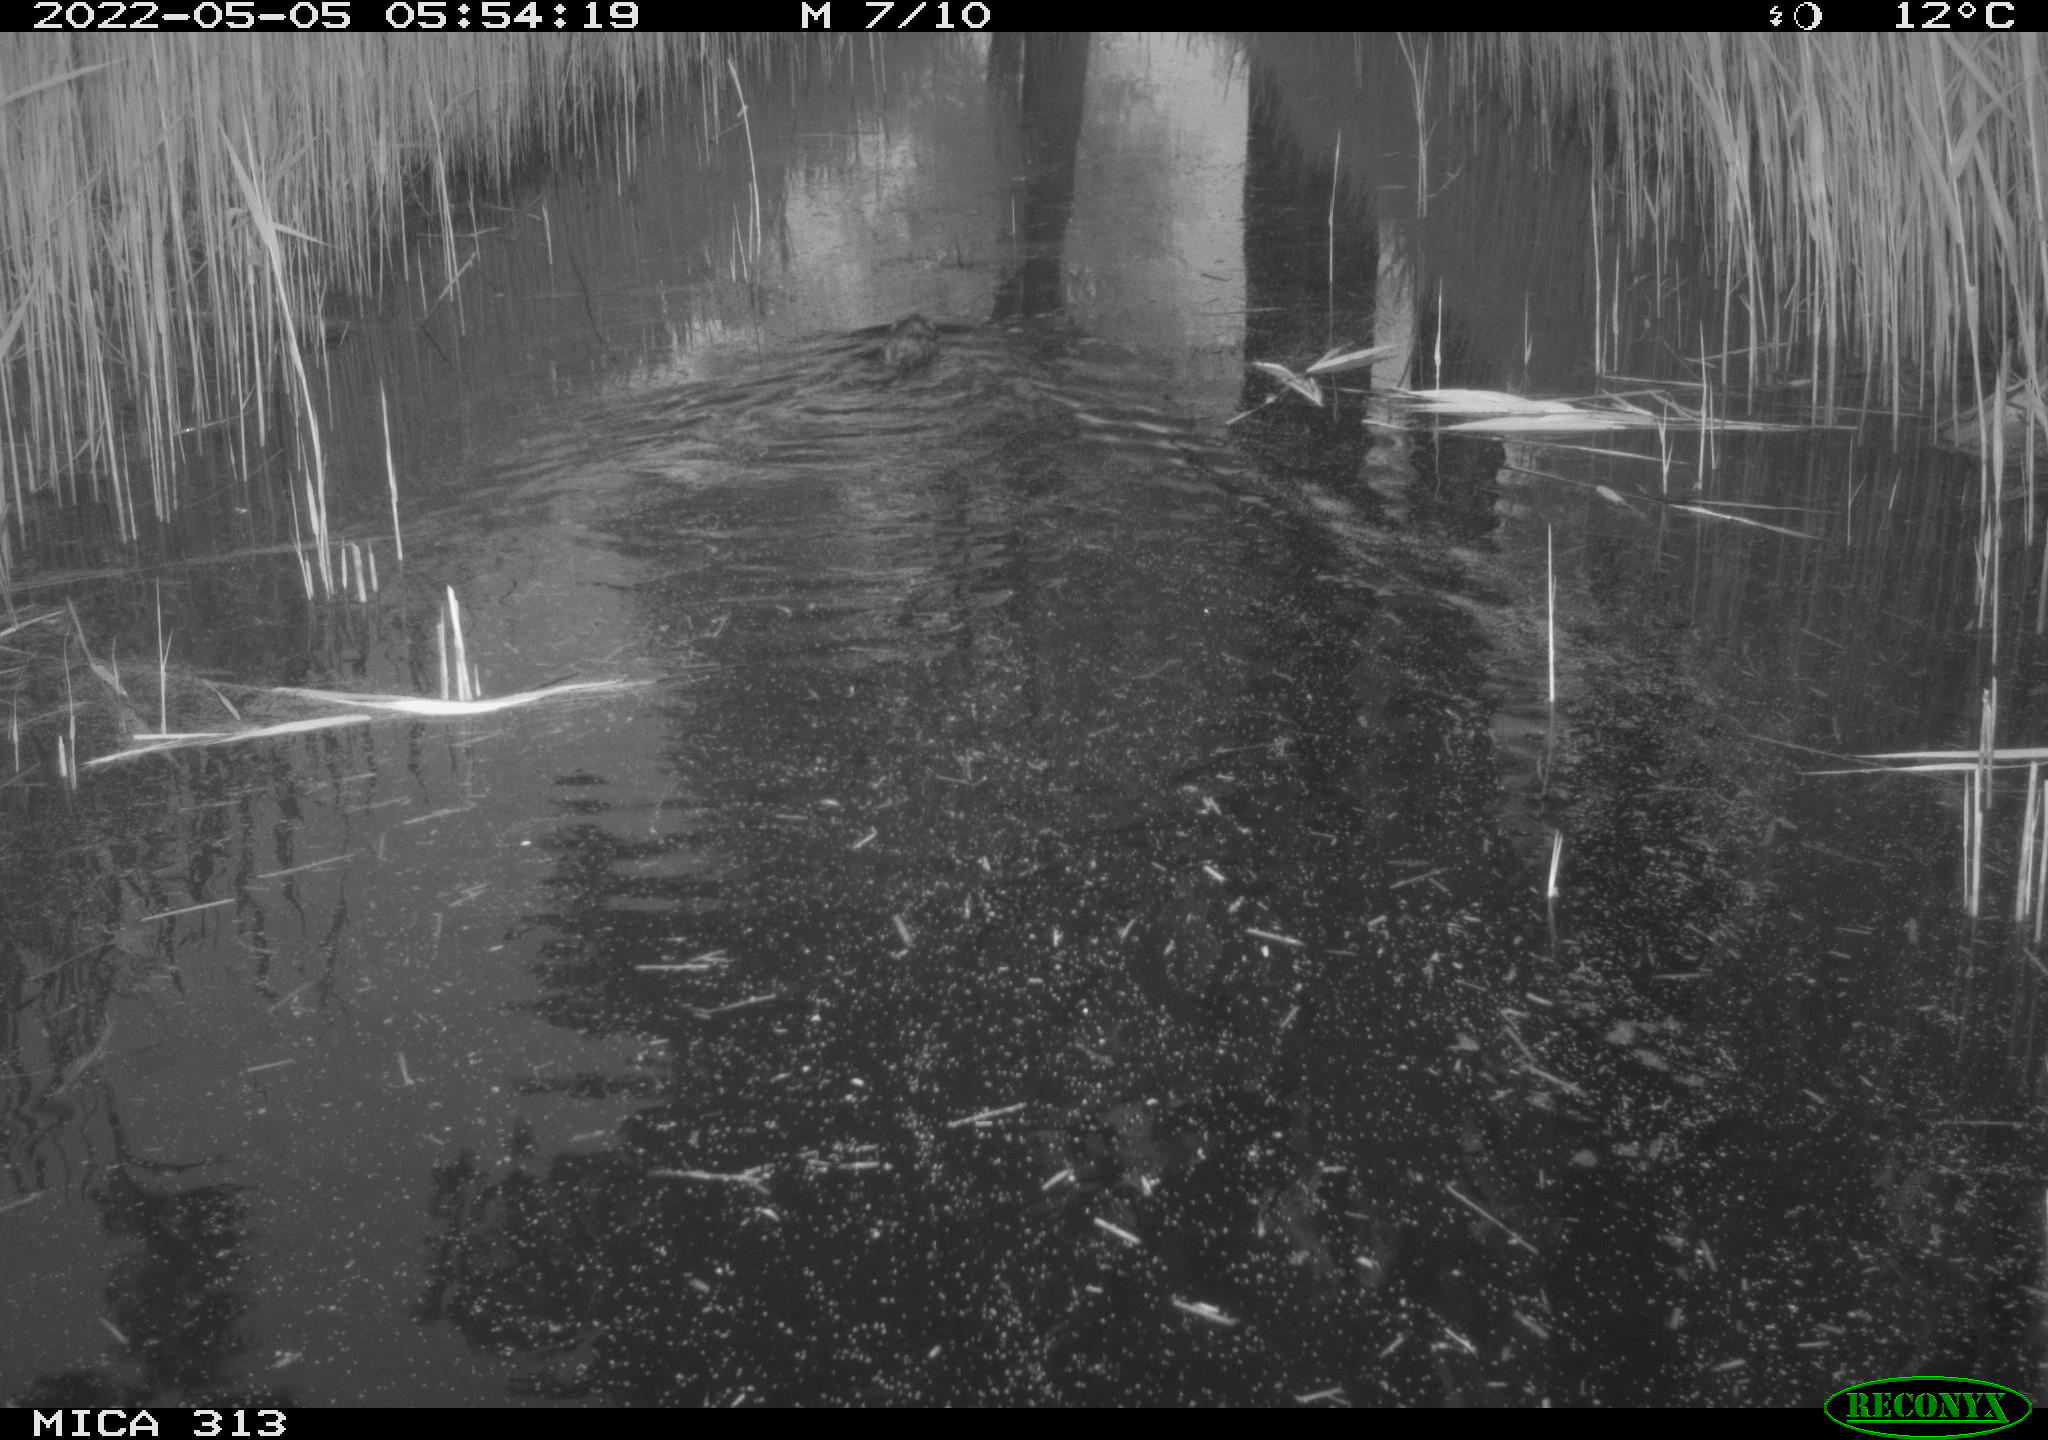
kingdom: Animalia
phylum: Chordata
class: Mammalia
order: Rodentia
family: Cricetidae
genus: Ondatra
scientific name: Ondatra zibethicus
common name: Muskrat
